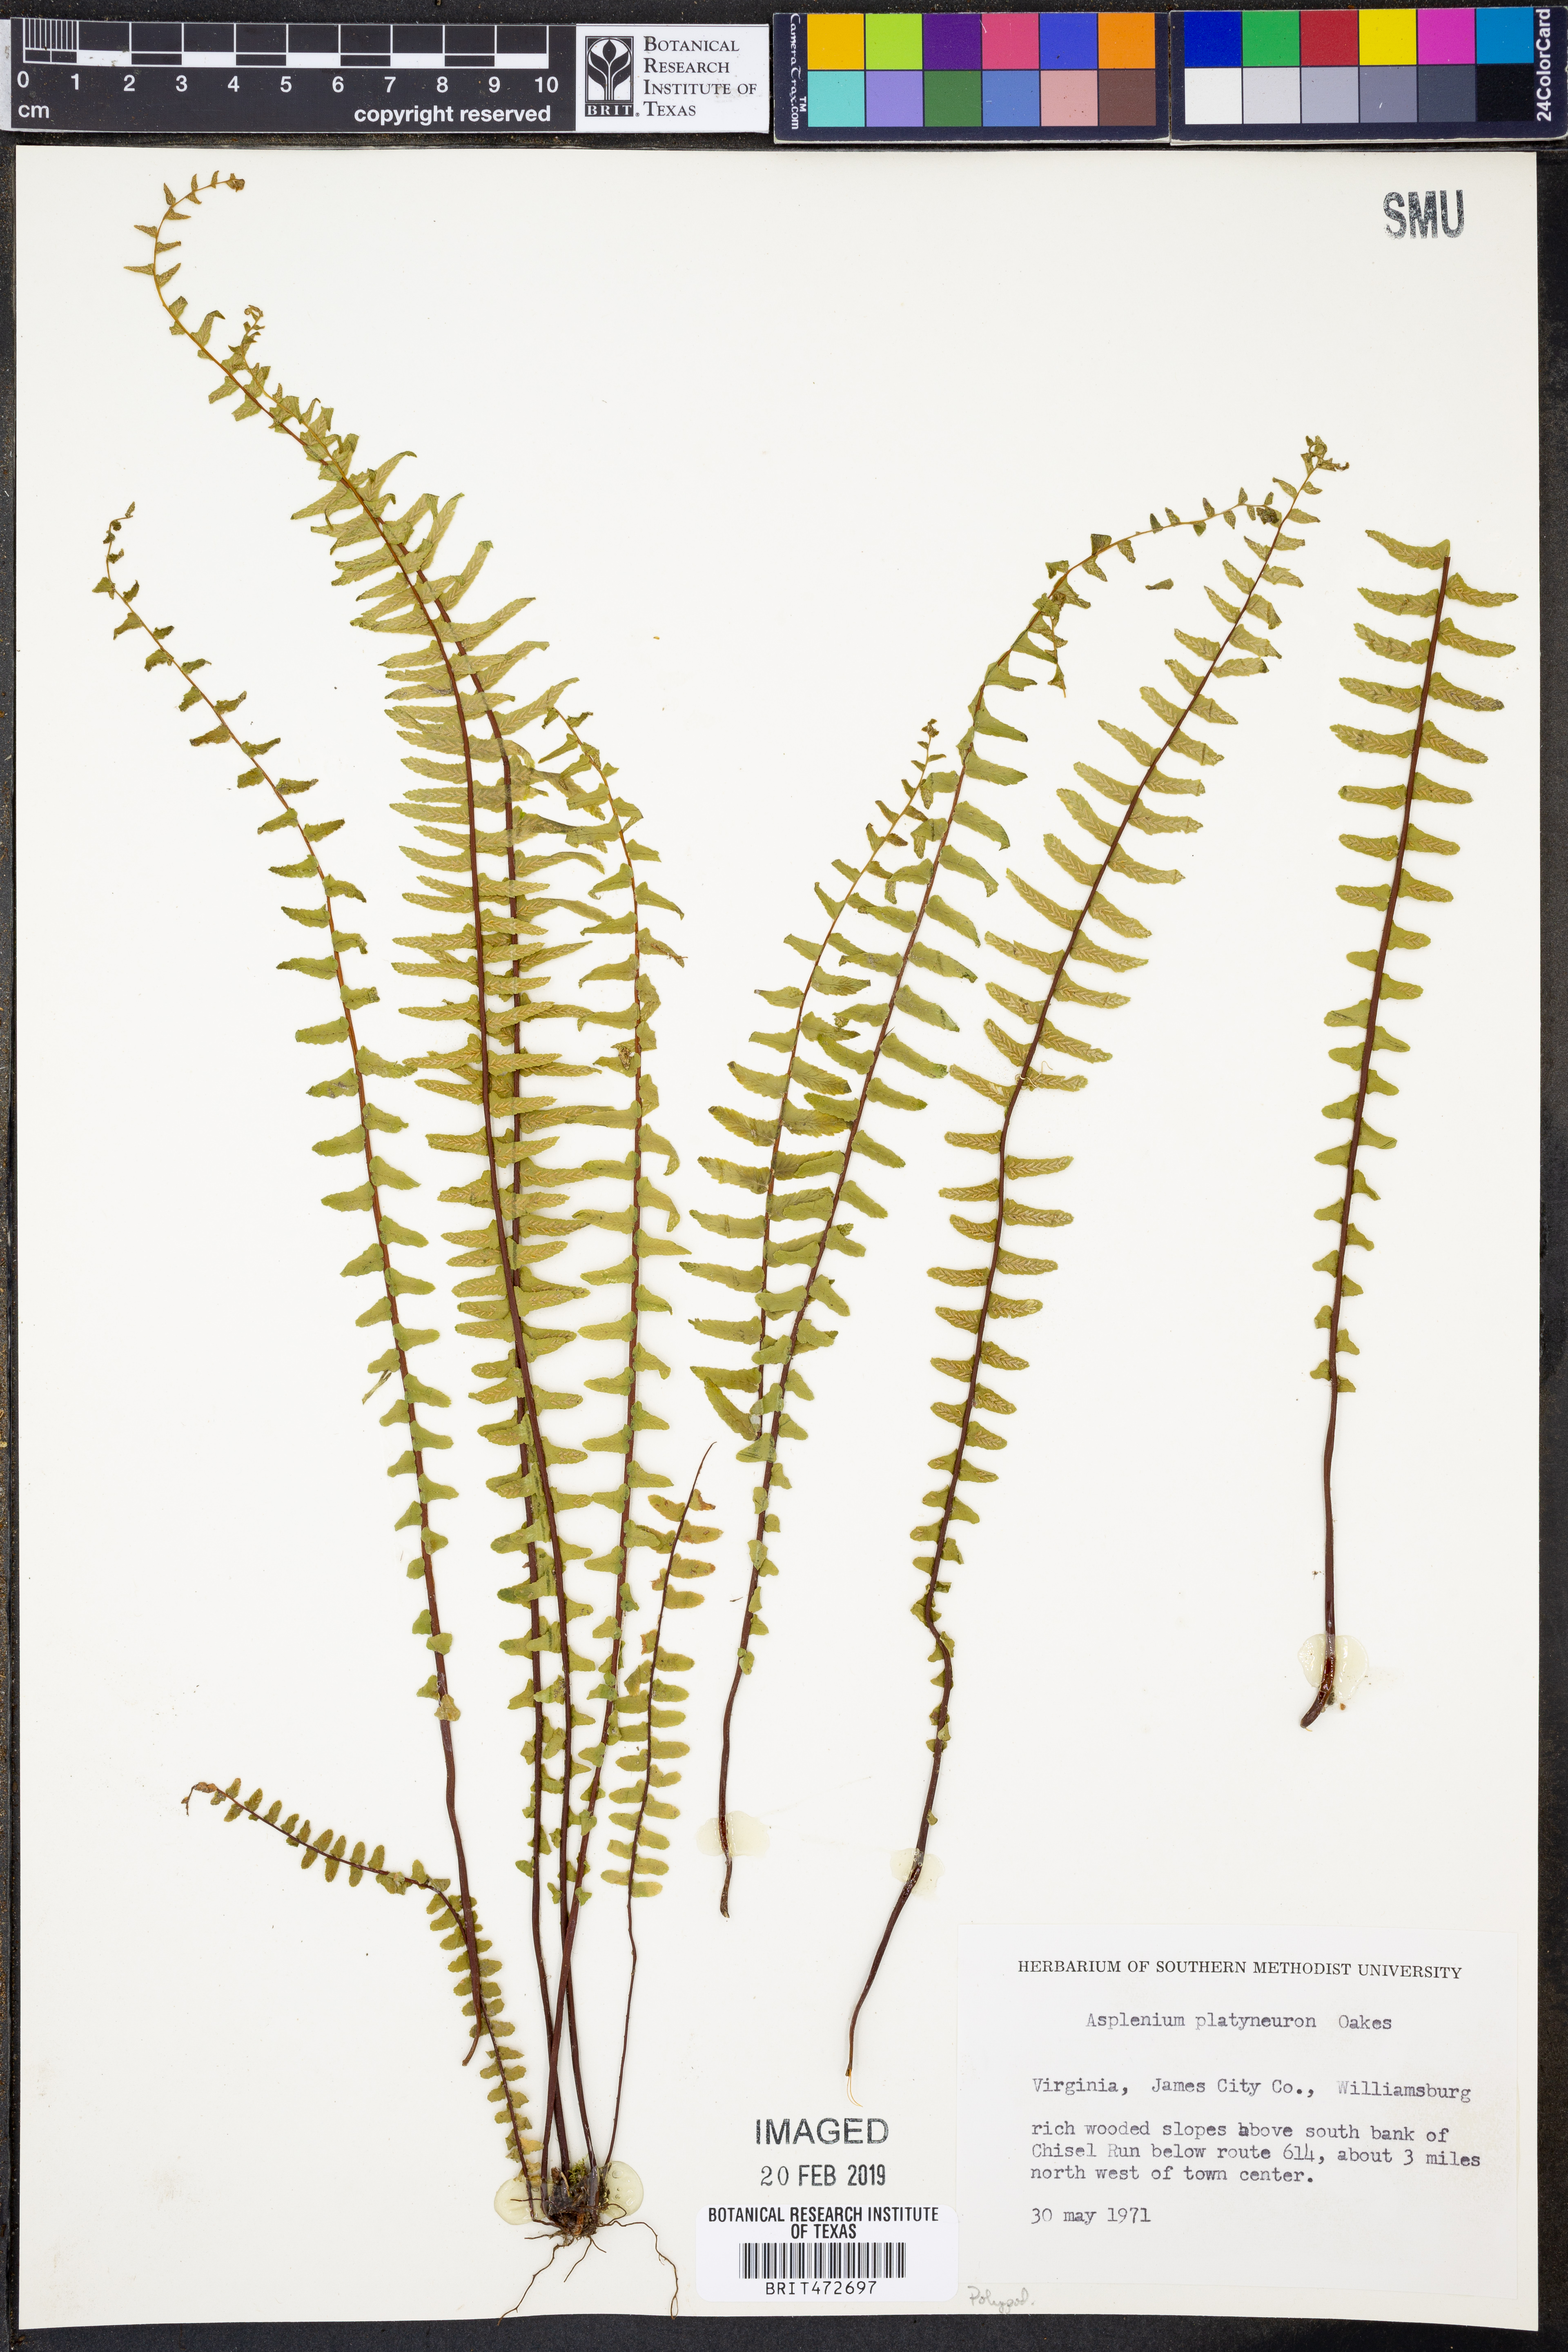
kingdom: Plantae
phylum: Tracheophyta
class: Polypodiopsida
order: Polypodiales
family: Aspleniaceae
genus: Asplenium
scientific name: Asplenium platyneuron
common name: Ebony spleenwort
